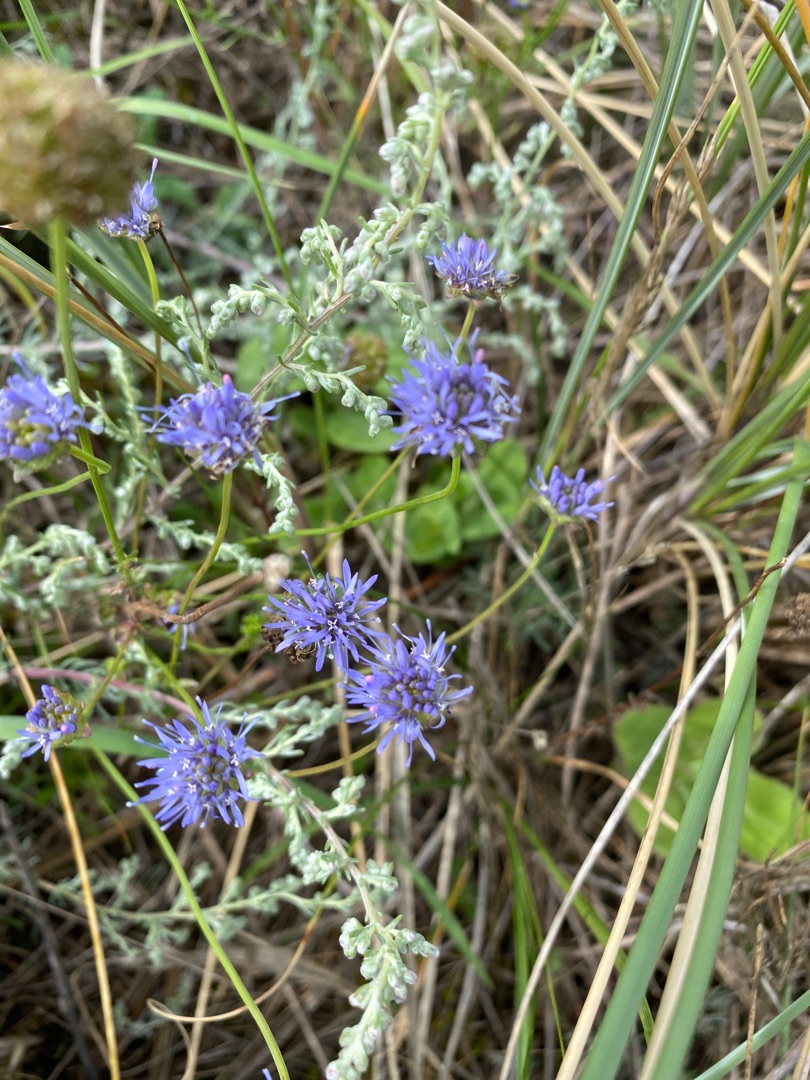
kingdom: Plantae
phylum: Tracheophyta
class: Magnoliopsida
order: Asterales
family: Campanulaceae
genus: Jasione
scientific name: Jasione montana
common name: Blåmunke
